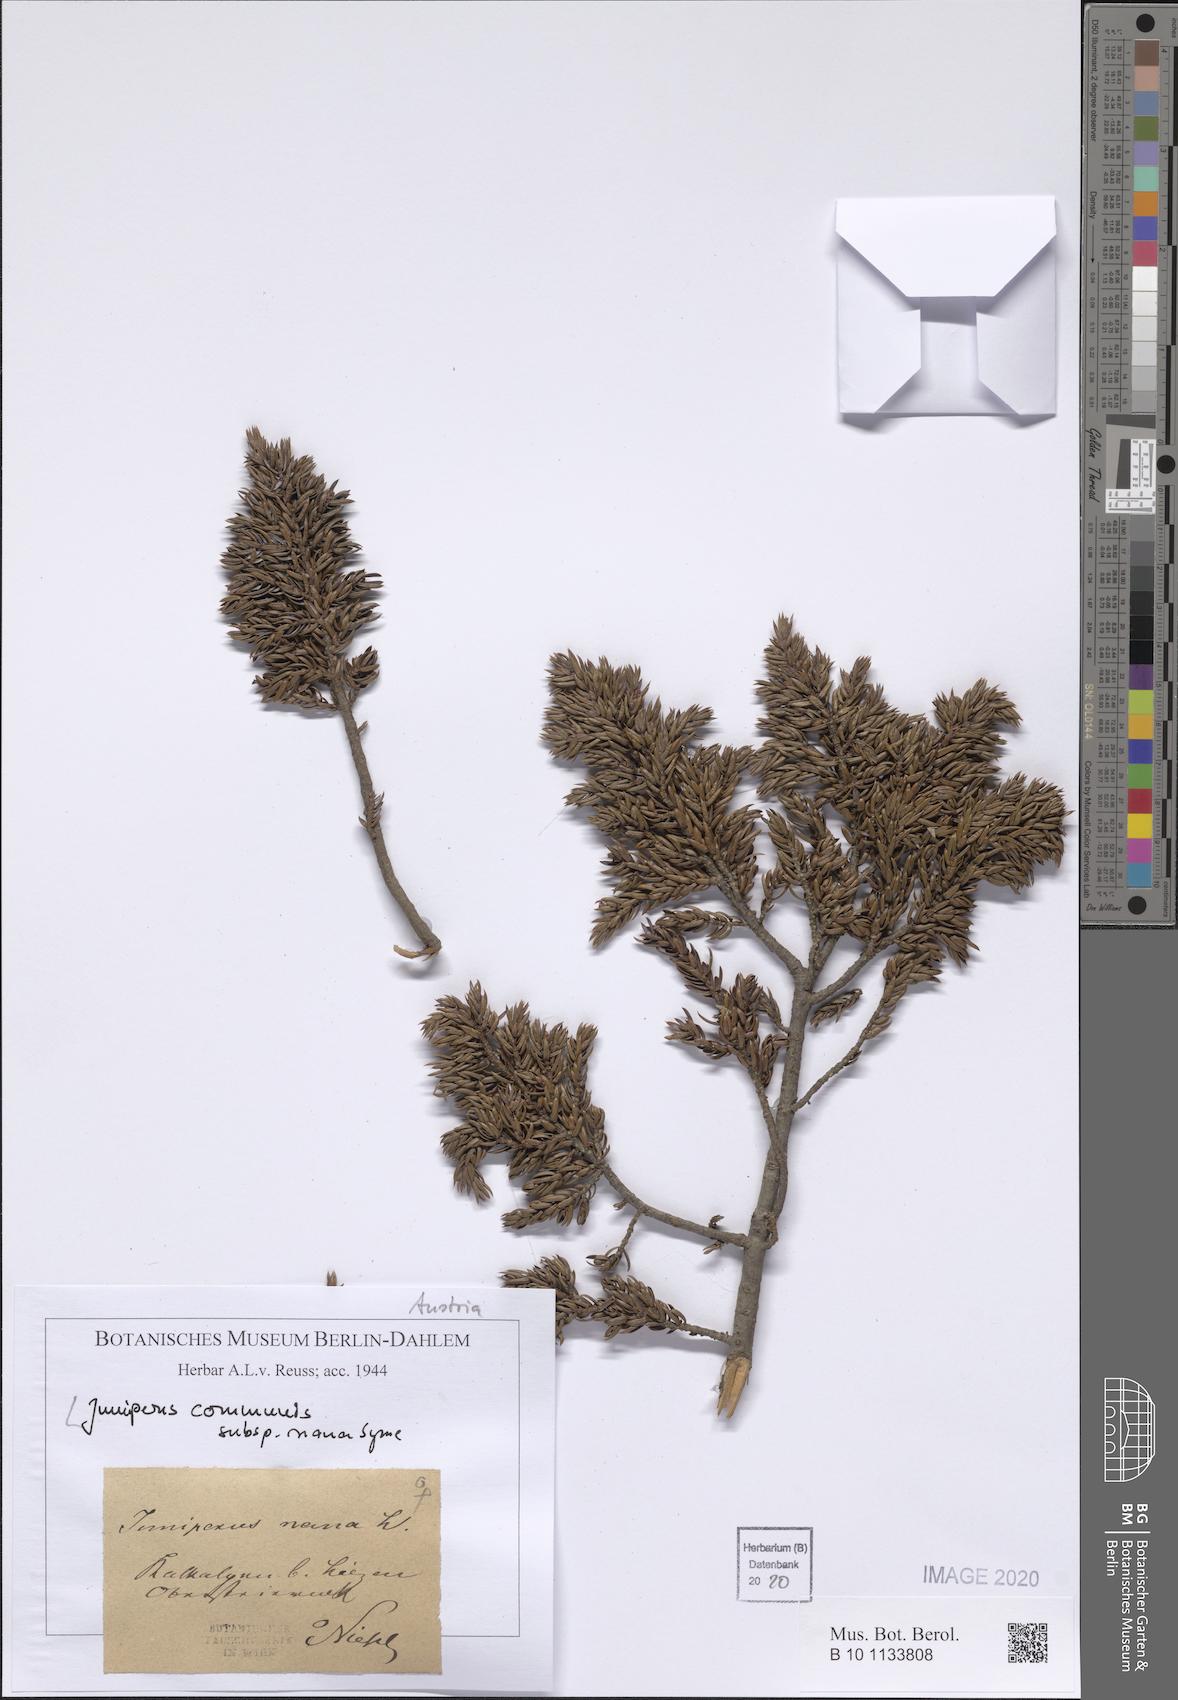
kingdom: Plantae
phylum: Tracheophyta
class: Pinopsida
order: Pinales
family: Cupressaceae
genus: Juniperus
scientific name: Juniperus communis
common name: Common juniper
